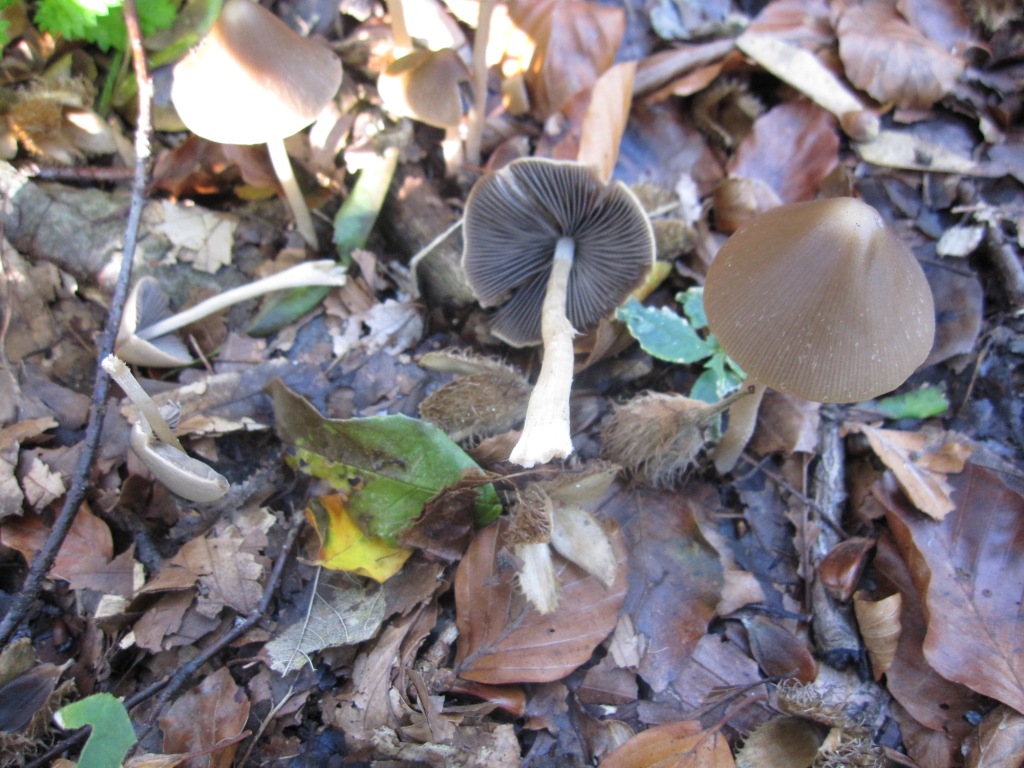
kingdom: Fungi
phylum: Basidiomycota
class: Agaricomycetes
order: Agaricales
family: Psathyrellaceae
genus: Parasola
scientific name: Parasola conopilea
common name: kegle-hjulhat
